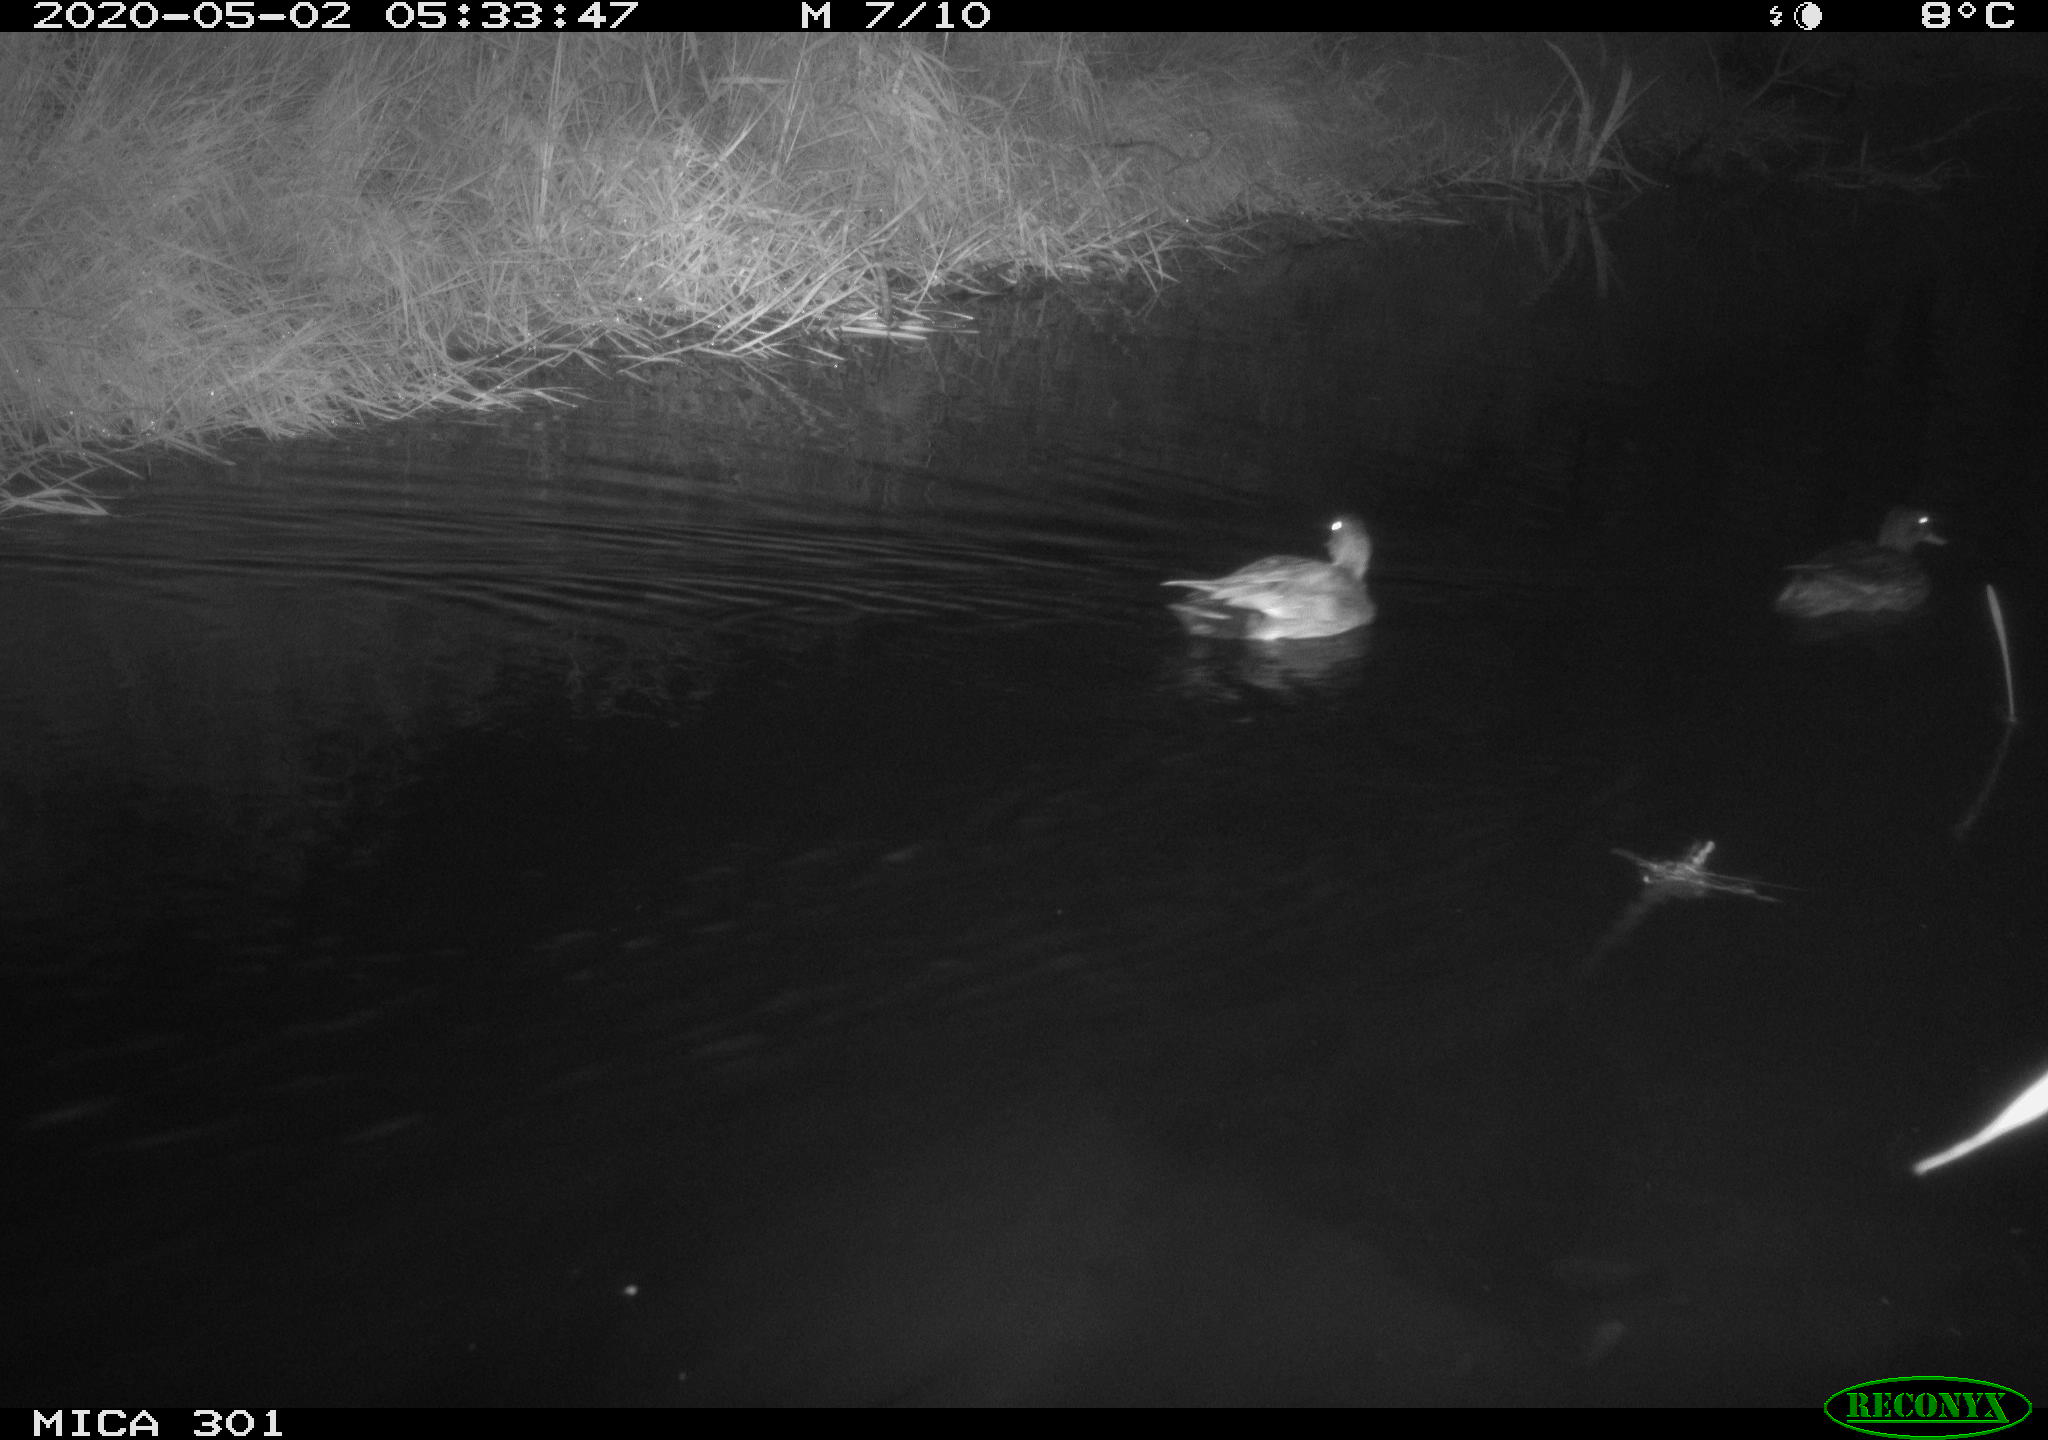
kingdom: Animalia
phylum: Chordata
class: Aves
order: Anseriformes
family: Anatidae
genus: Mareca
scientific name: Mareca strepera
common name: Gadwall
